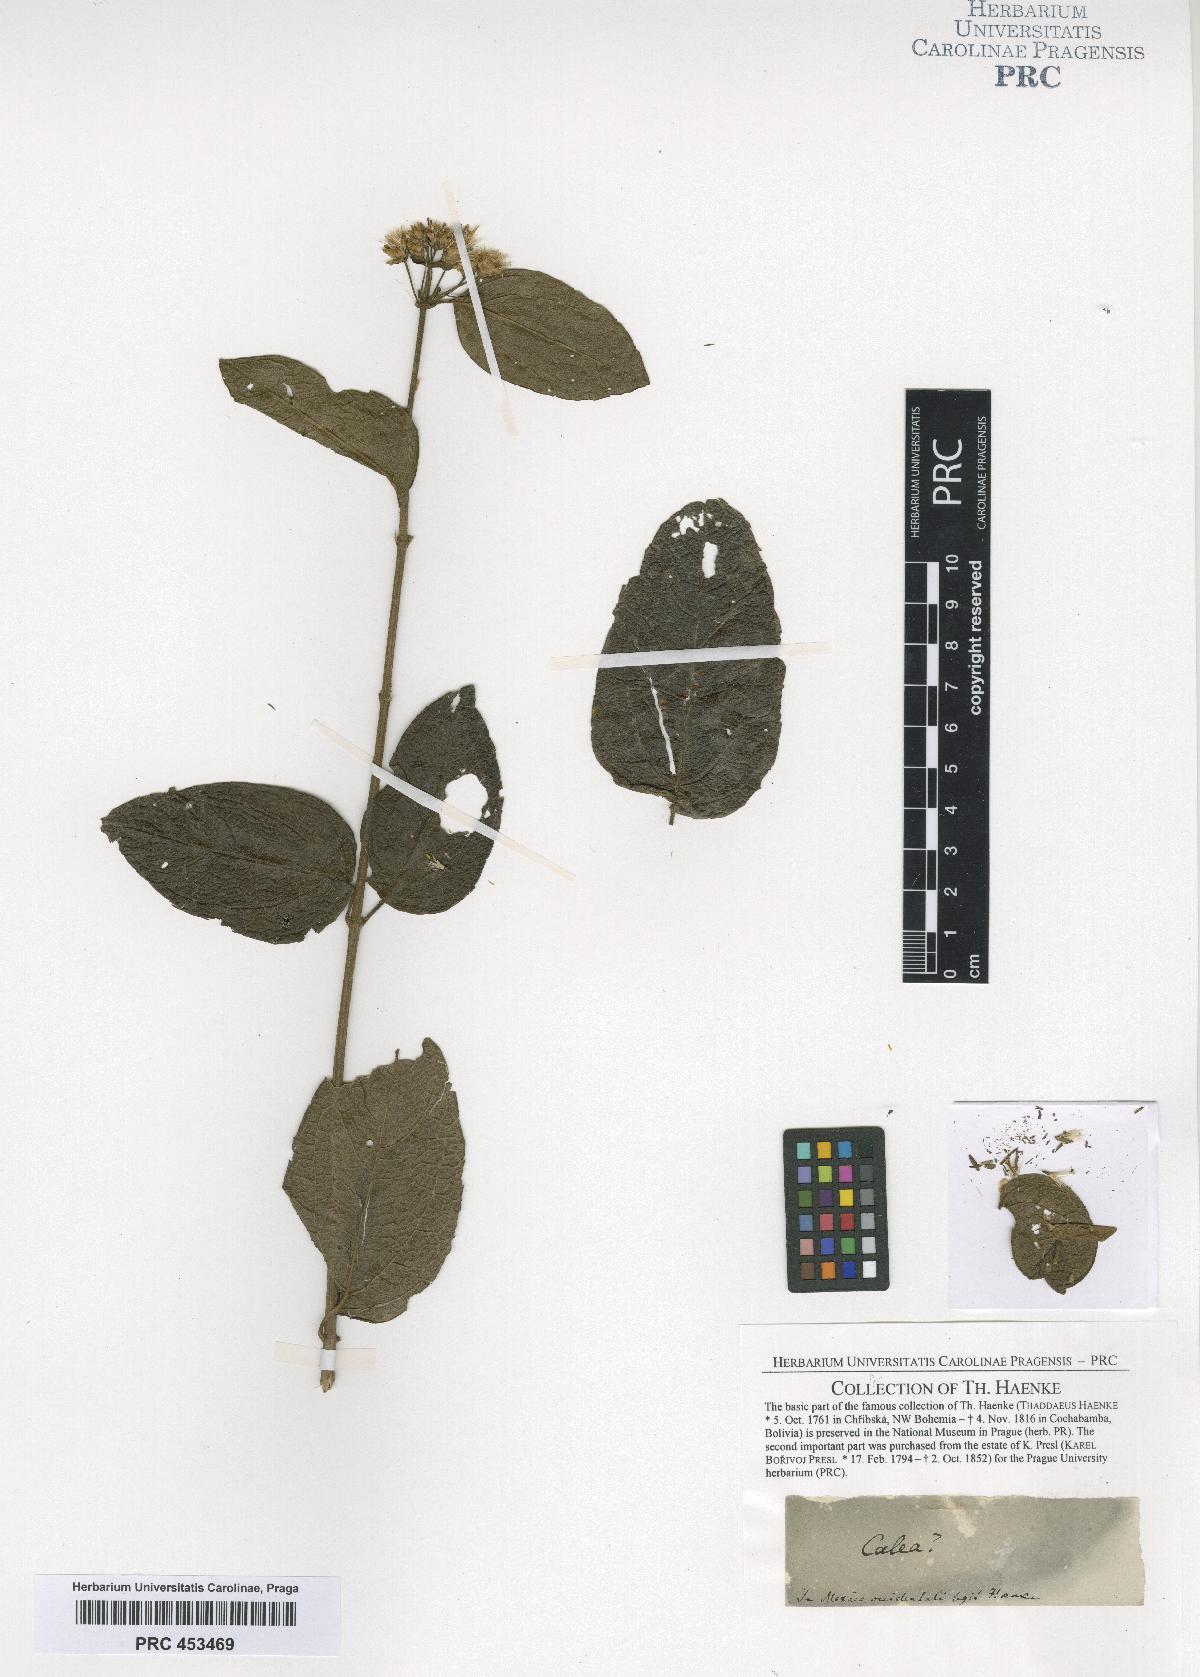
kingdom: Plantae
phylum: Tracheophyta
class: Magnoliopsida
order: Asterales
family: Asteraceae
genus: Calea
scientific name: Calea
